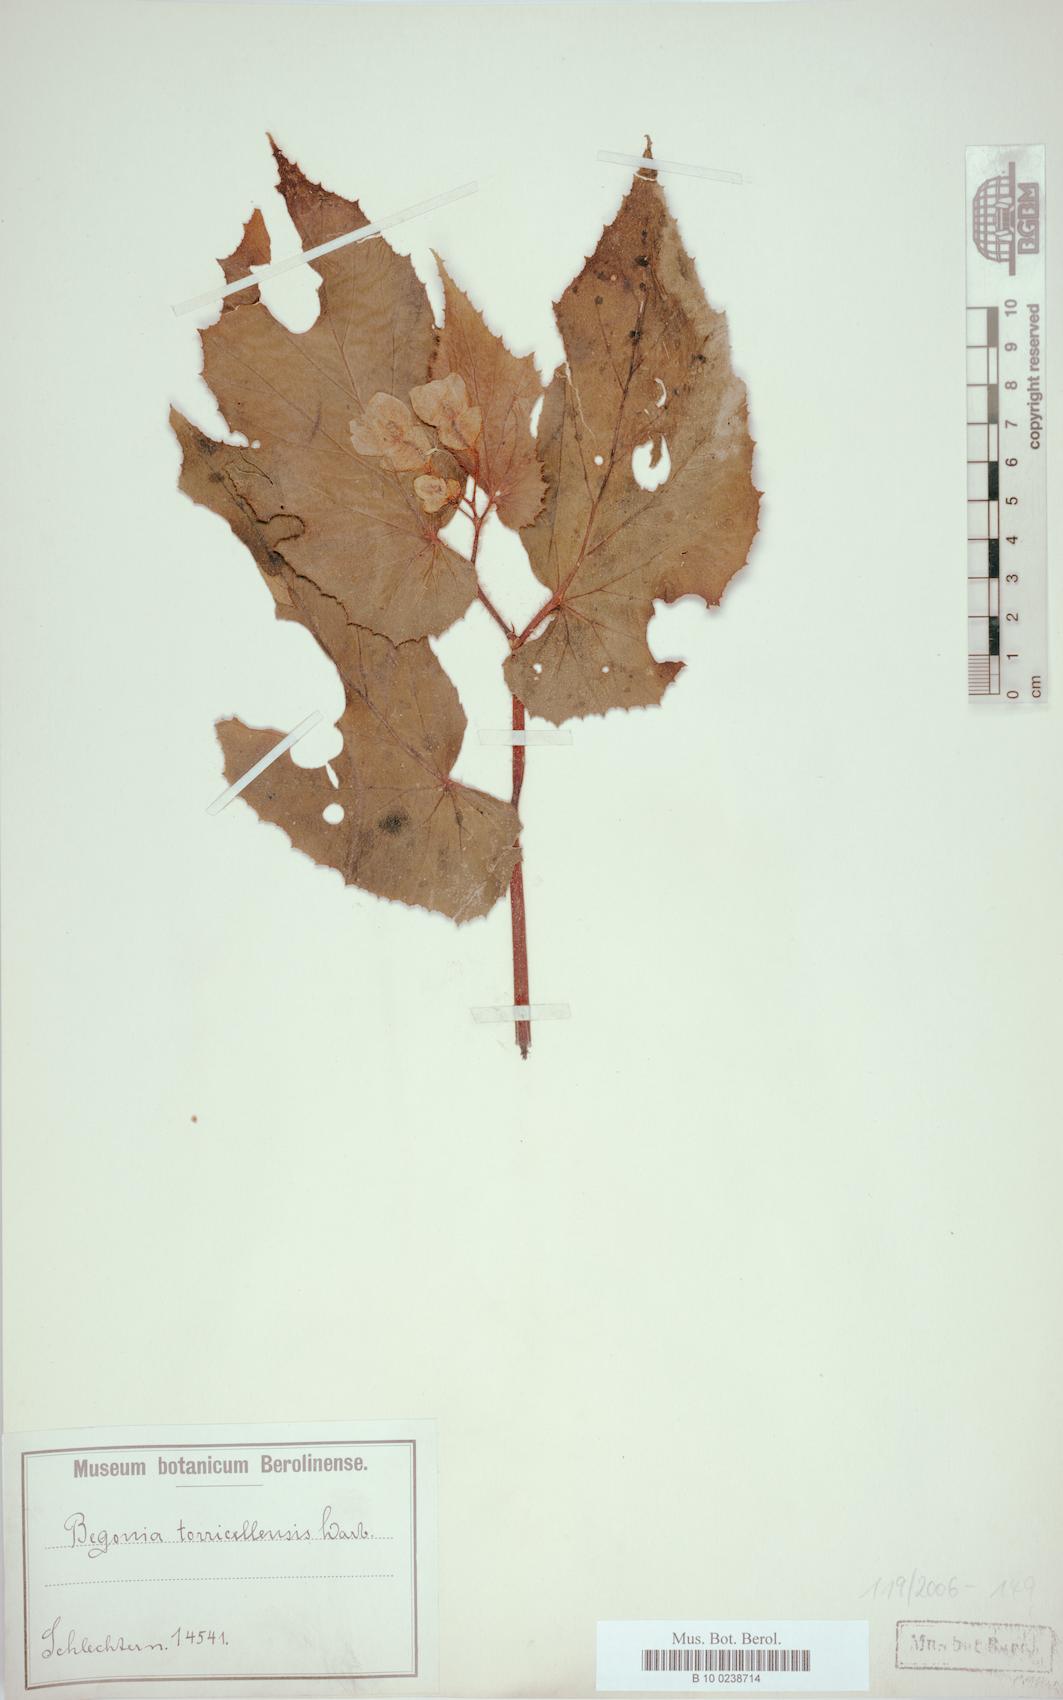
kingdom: Plantae
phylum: Tracheophyta
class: Magnoliopsida
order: Cucurbitales
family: Begoniaceae
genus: Begonia
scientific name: Begonia torricellensis
